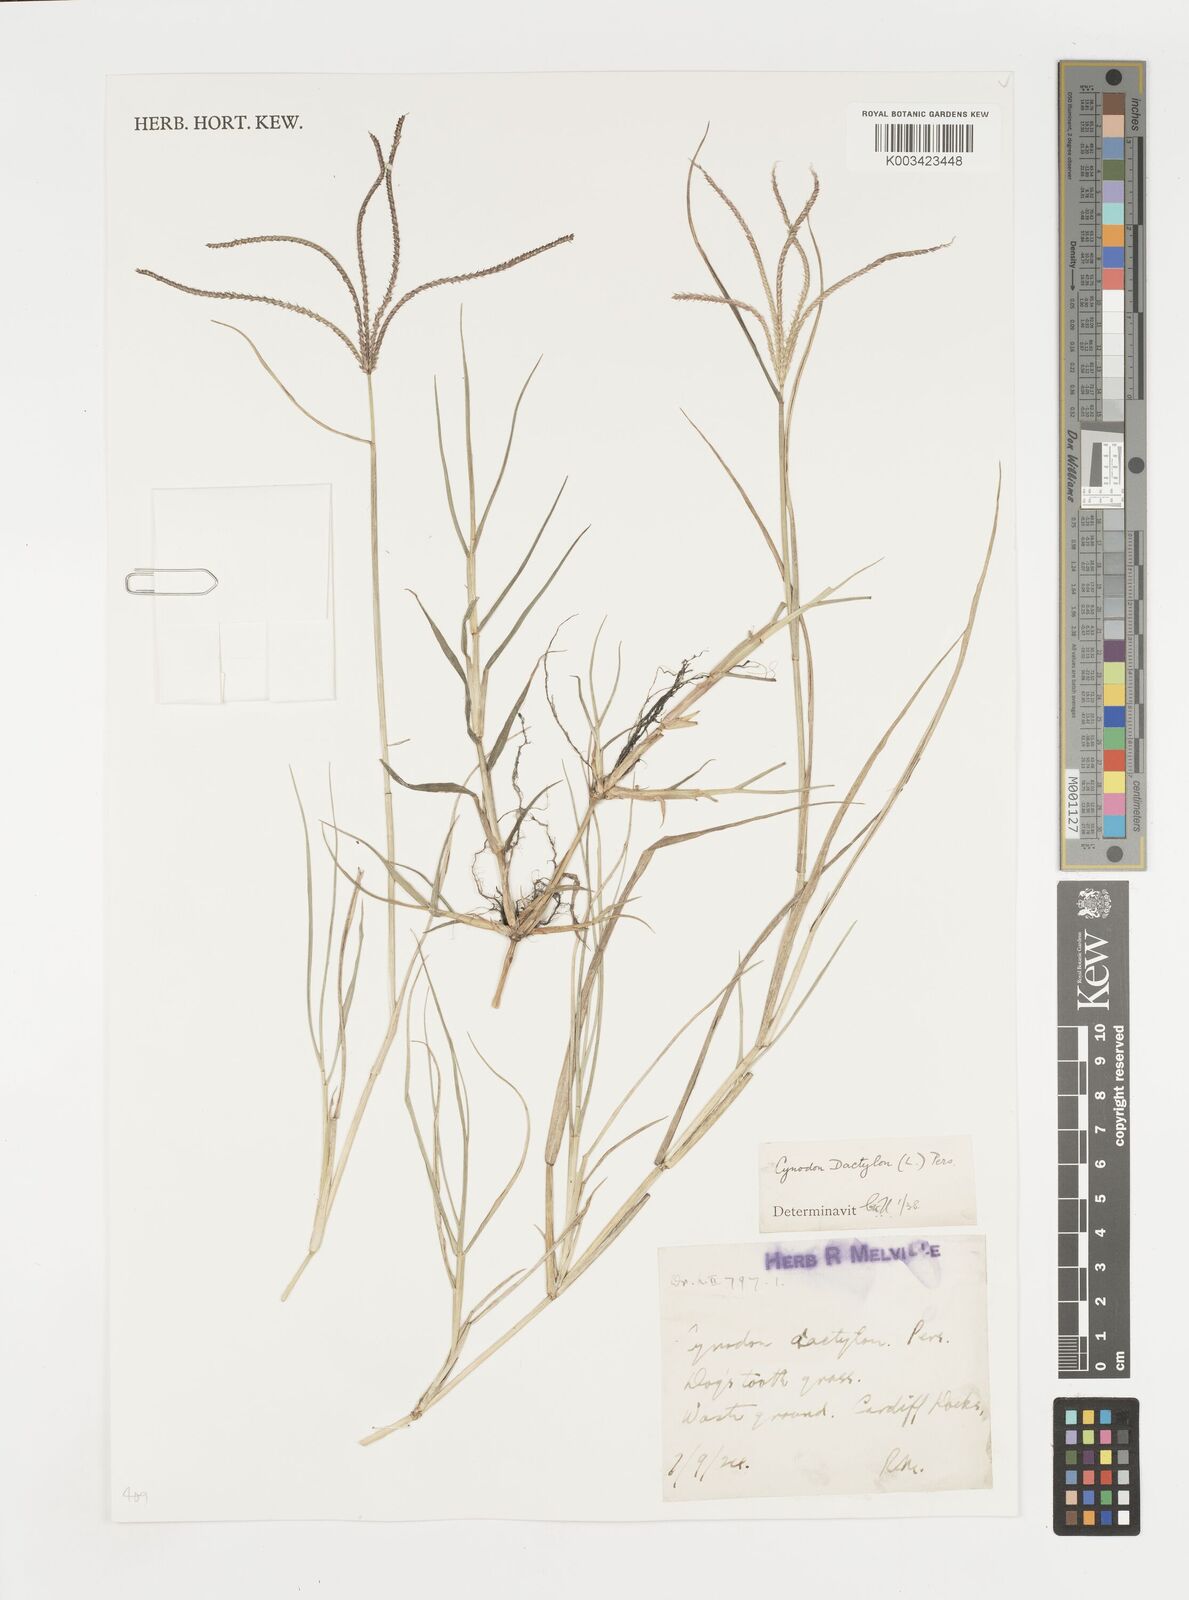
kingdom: Plantae
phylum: Tracheophyta
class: Liliopsida
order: Poales
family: Poaceae
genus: Cynodon
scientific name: Cynodon dactylon
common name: Bermuda grass
